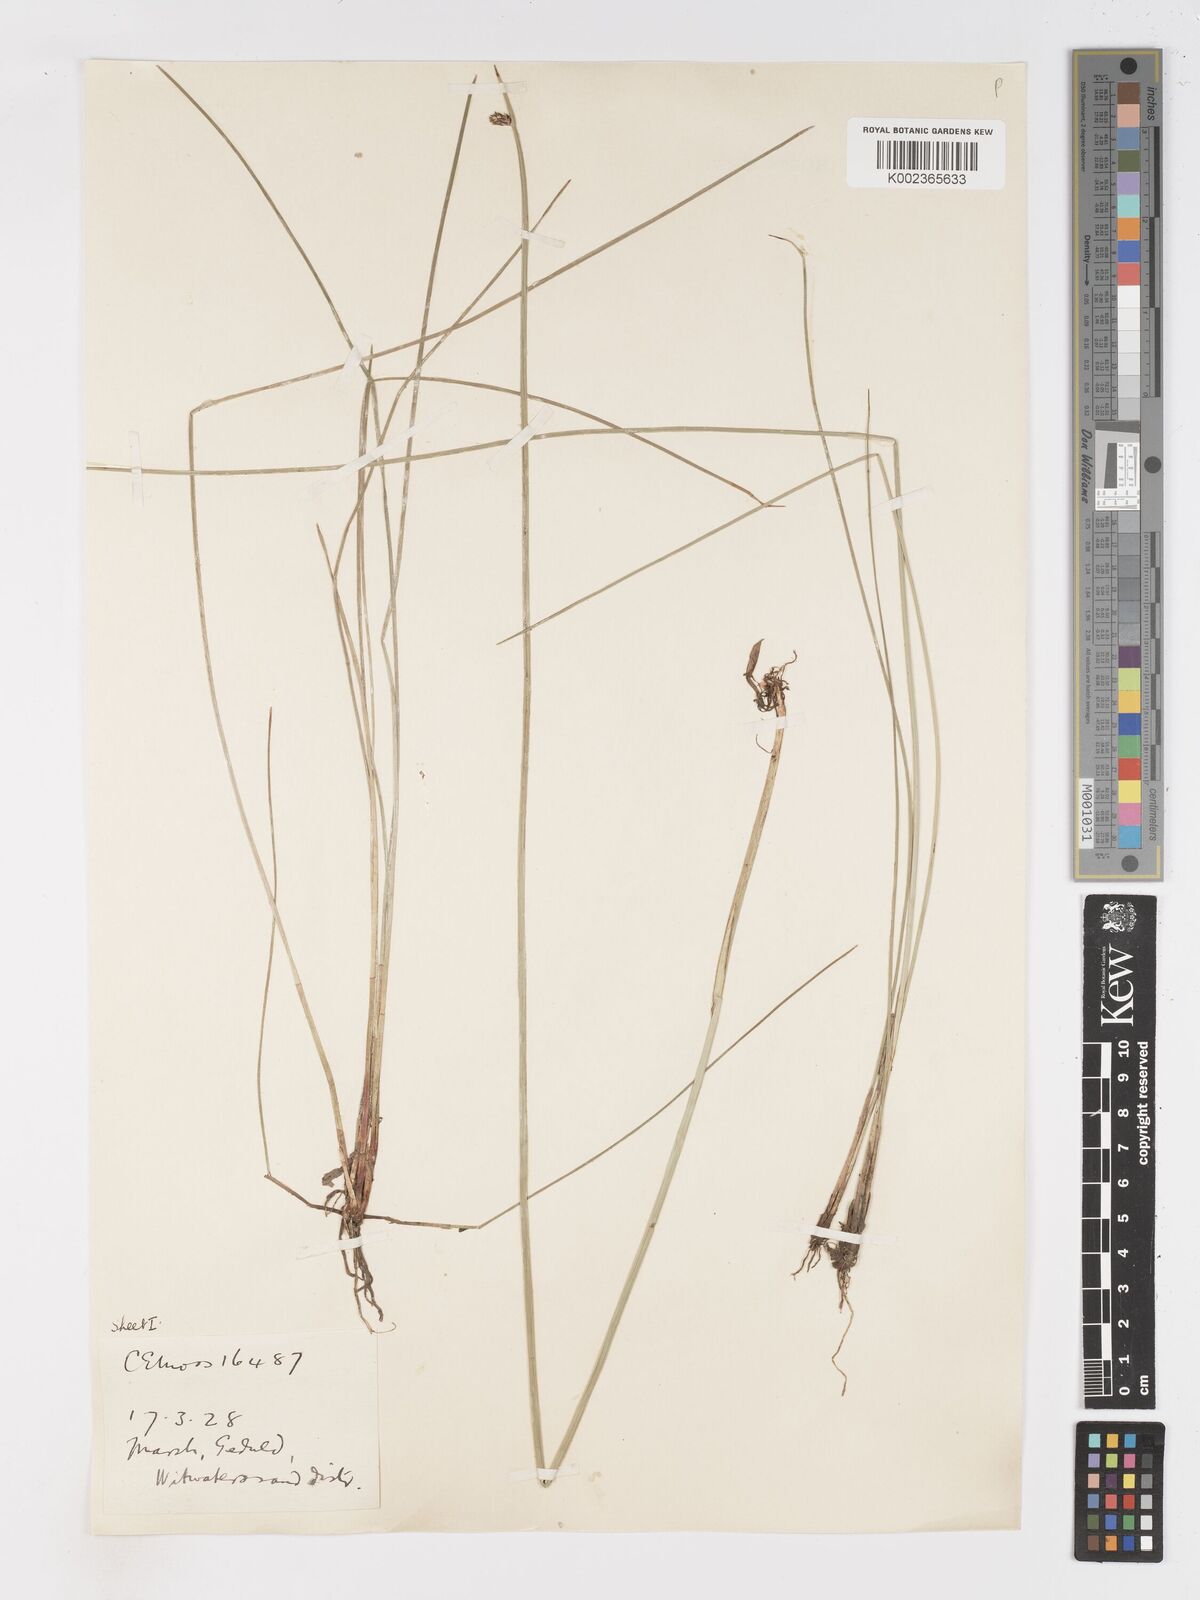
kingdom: Plantae
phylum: Tracheophyta
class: Liliopsida
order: Poales
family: Cyperaceae
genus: Schoenoplectus
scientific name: Schoenoplectus
